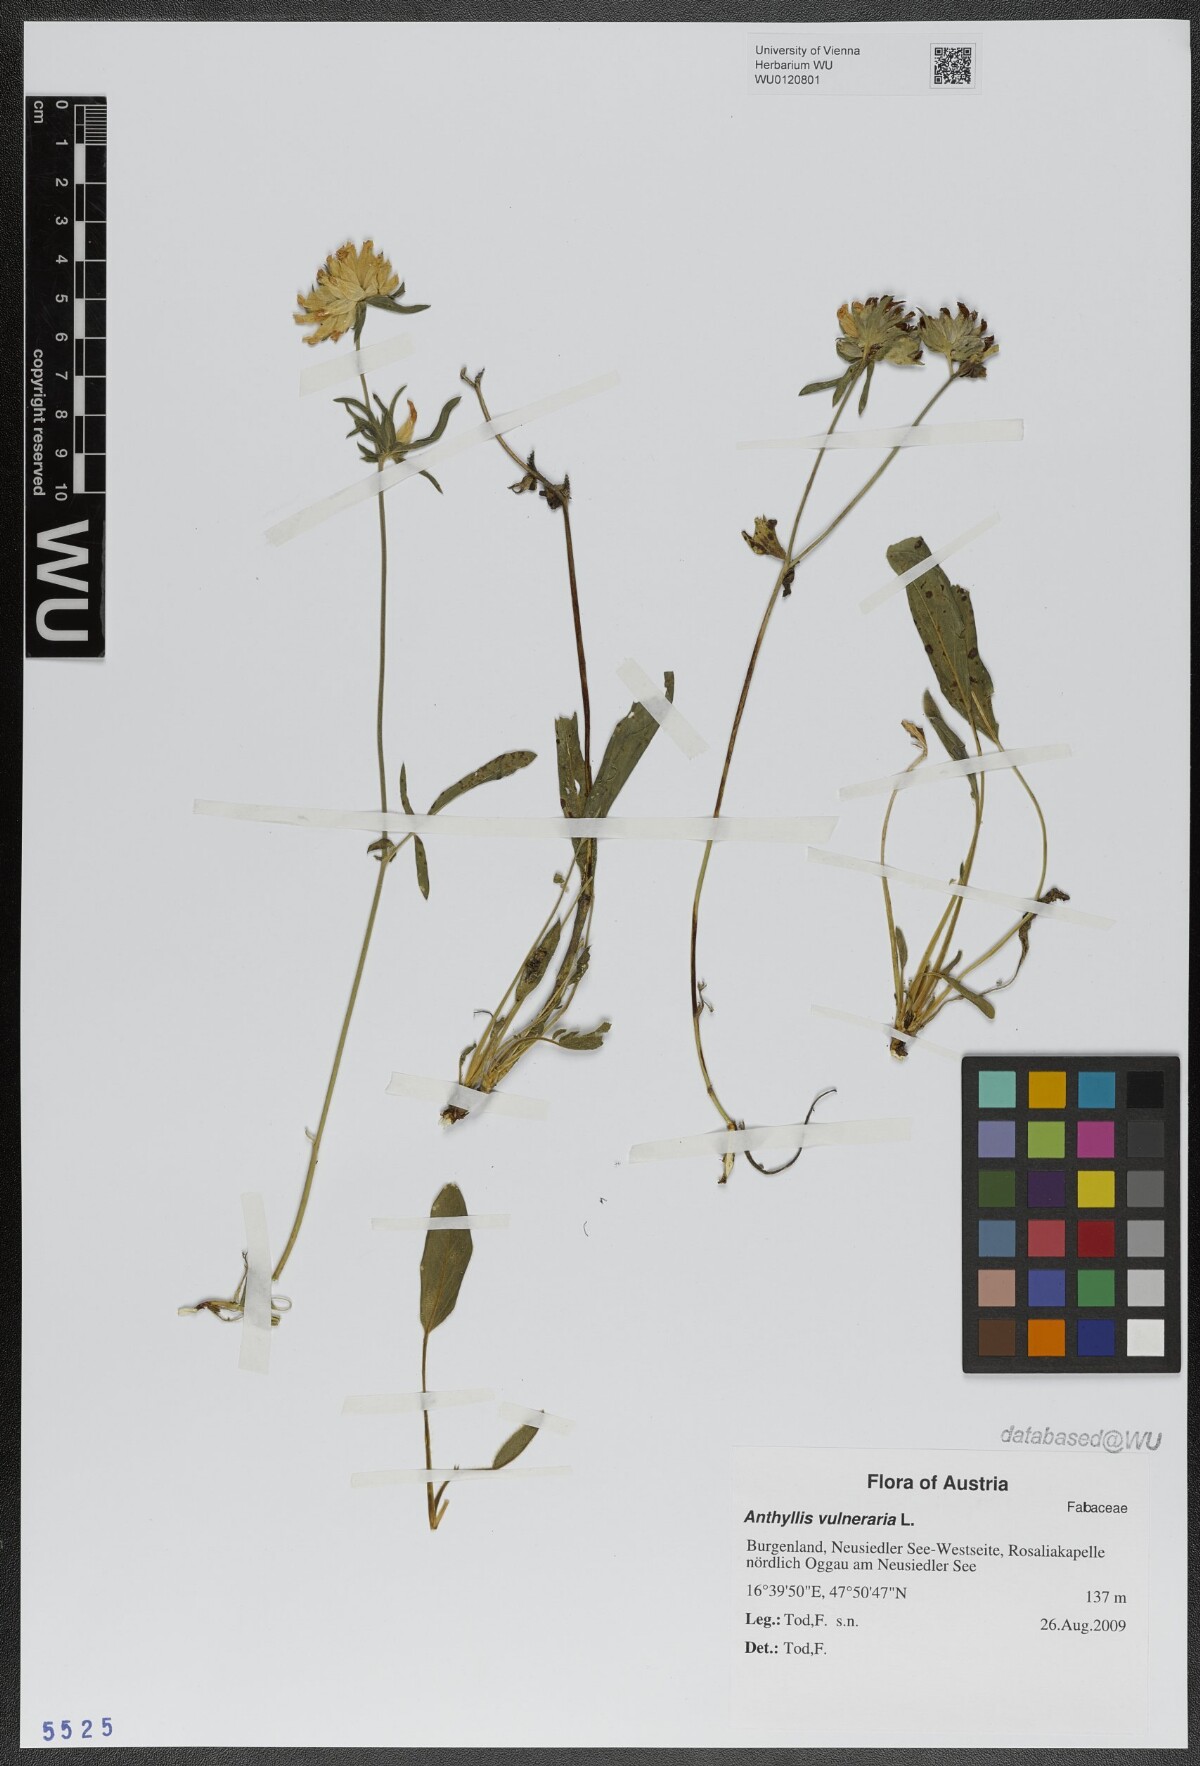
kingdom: Plantae
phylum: Tracheophyta
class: Magnoliopsida
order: Fabales
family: Fabaceae
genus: Anthyllis
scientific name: Anthyllis vulneraria
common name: Kidney vetch
